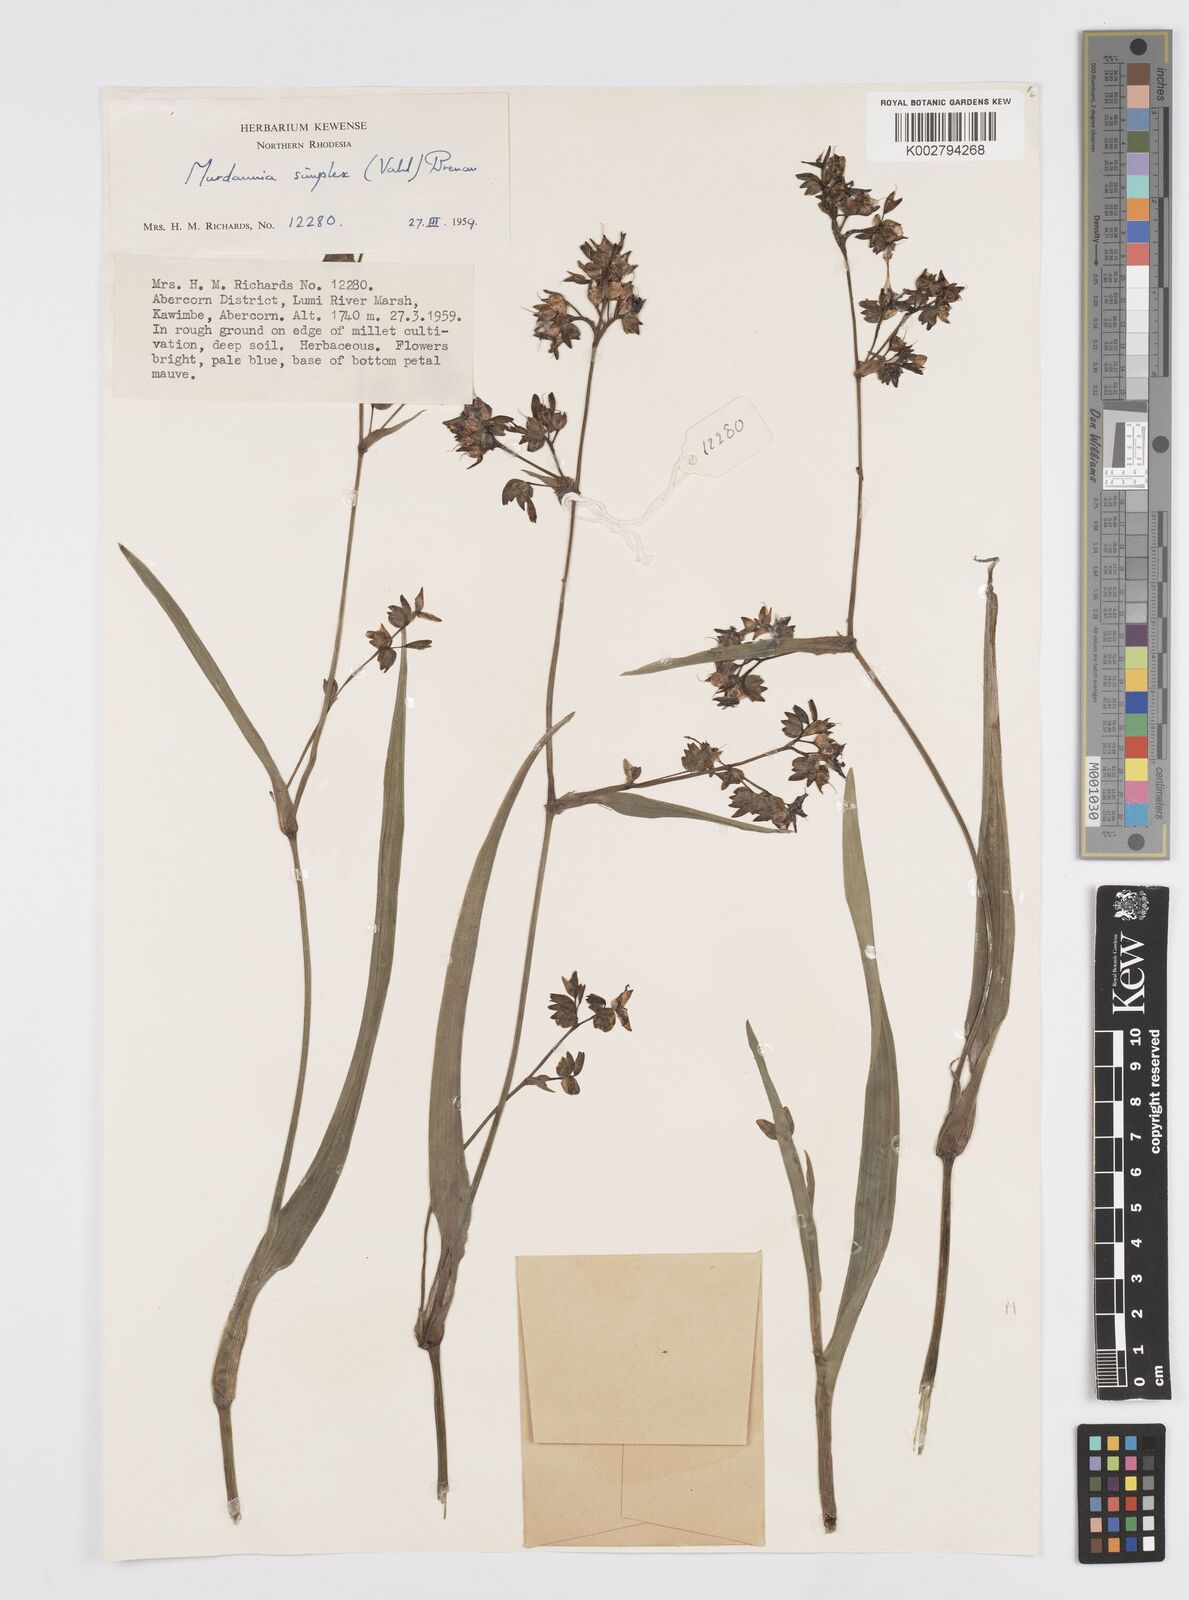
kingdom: Plantae
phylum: Tracheophyta
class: Liliopsida
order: Commelinales
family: Commelinaceae
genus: Murdannia
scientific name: Murdannia simplex
